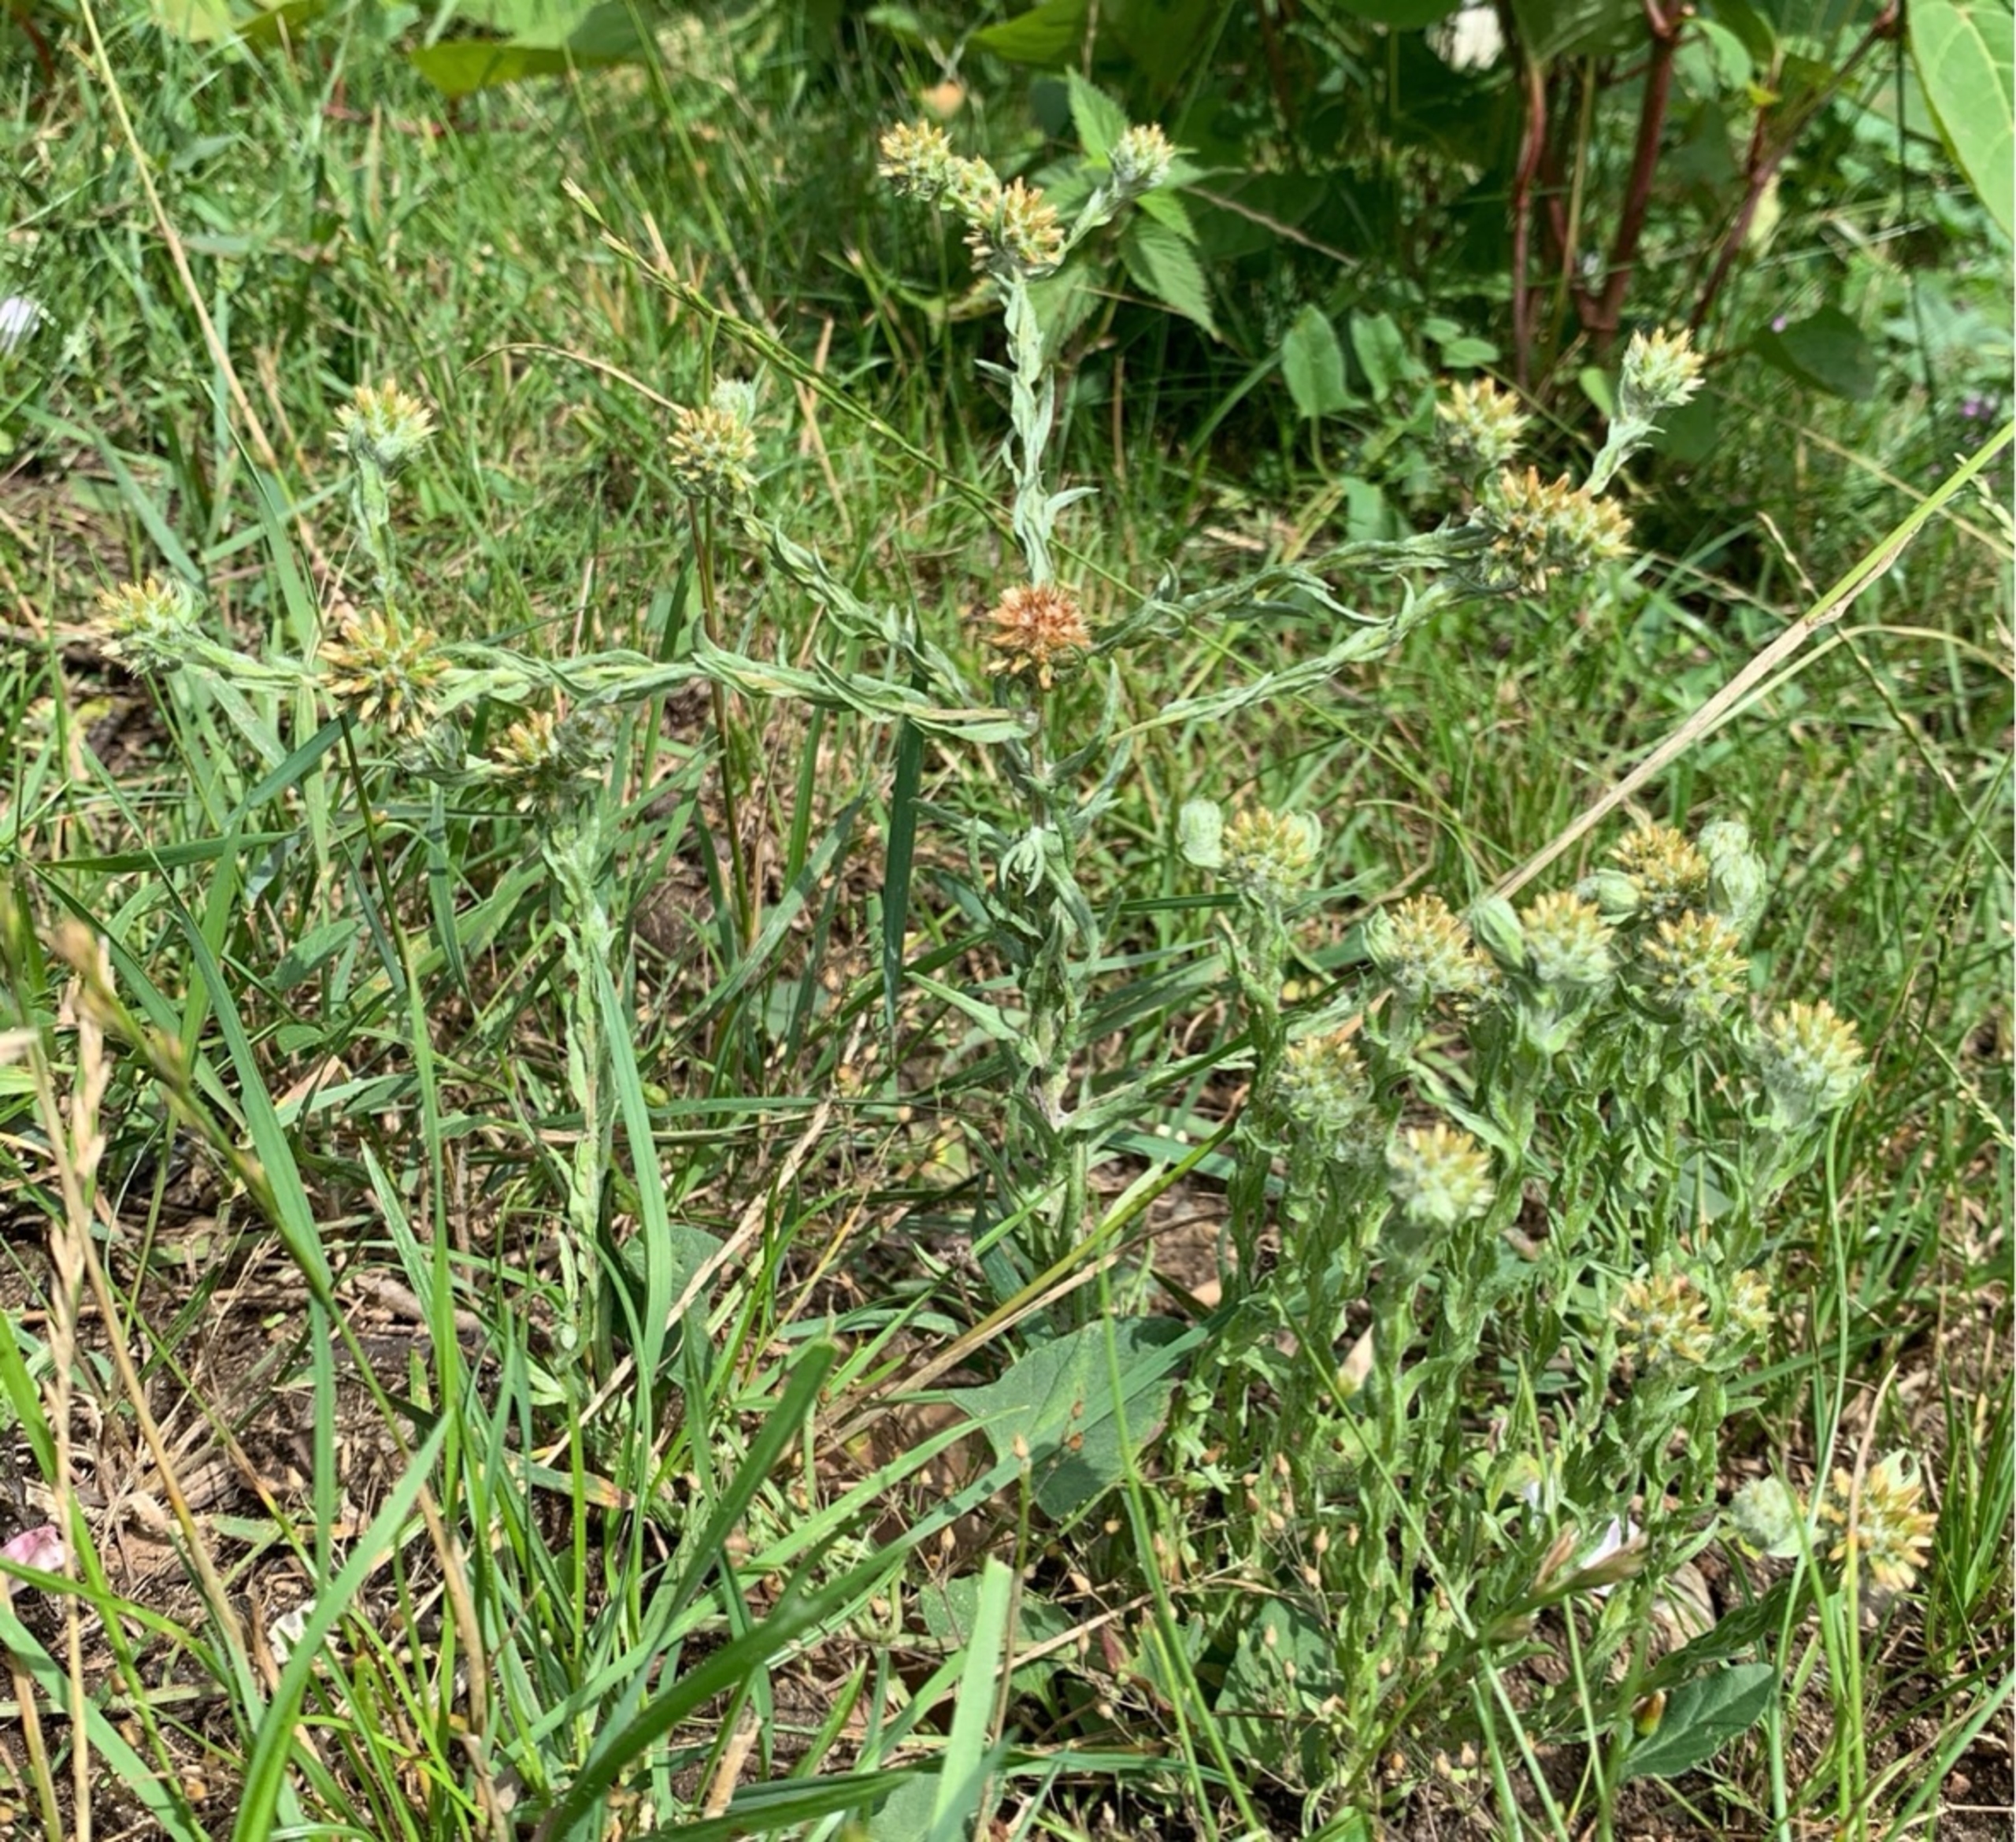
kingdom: Plantae
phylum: Tracheophyta
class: Magnoliopsida
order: Asterales
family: Asteraceae
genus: Filago
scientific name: Filago germanica
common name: Kugle-museurt
